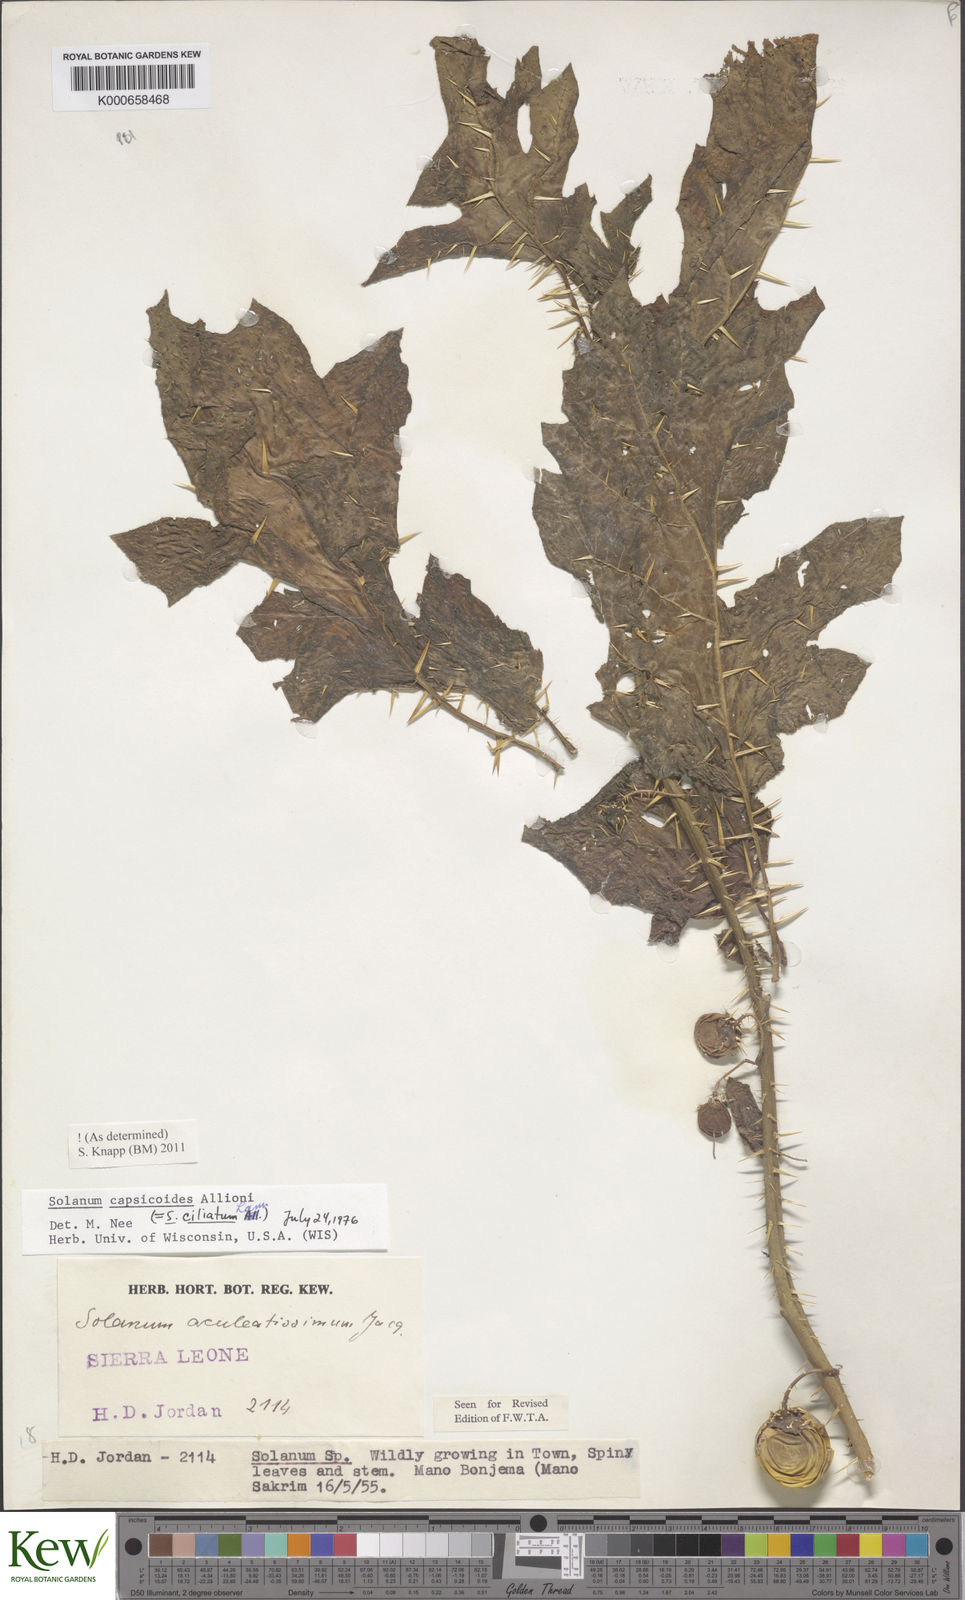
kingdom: Plantae
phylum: Tracheophyta
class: Magnoliopsida
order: Solanales
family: Solanaceae
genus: Solanum
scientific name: Solanum capsicoides
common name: Cockroach berry
